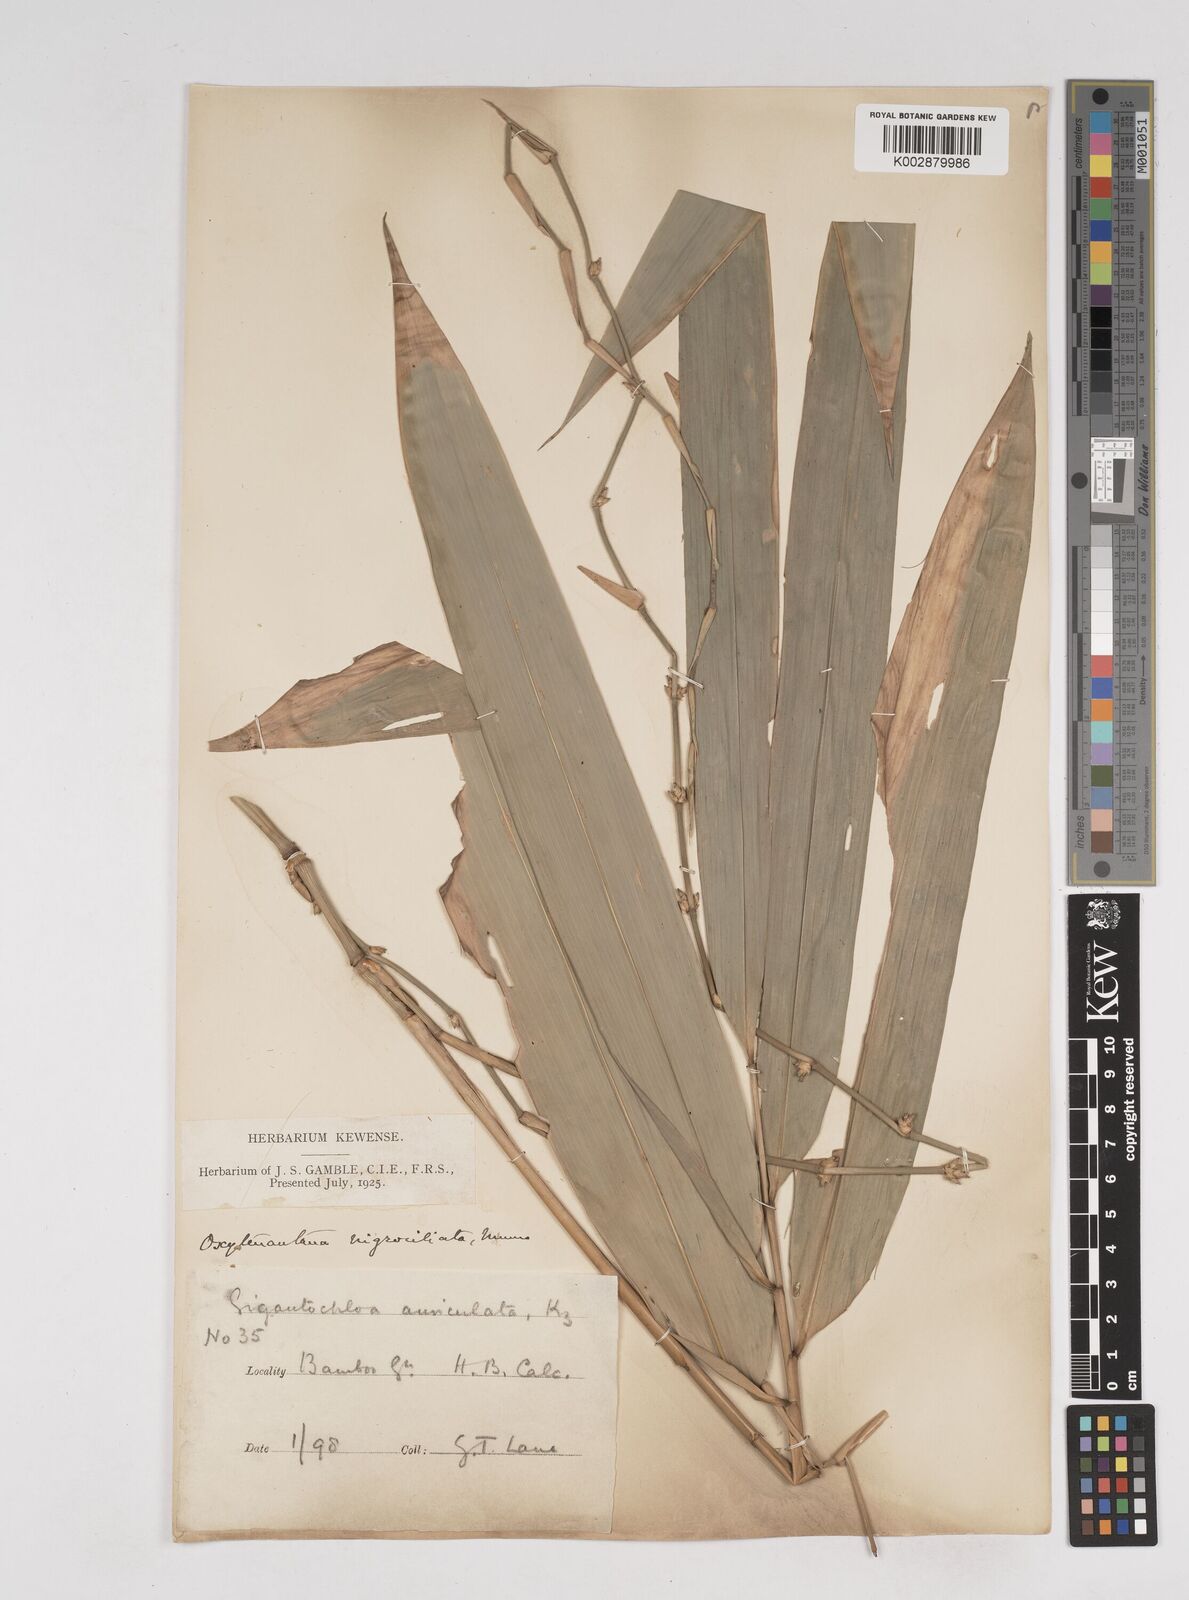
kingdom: Plantae
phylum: Tracheophyta
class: Liliopsida
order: Poales
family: Poaceae
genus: Gigantochloa
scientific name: Gigantochloa nigrociliata
